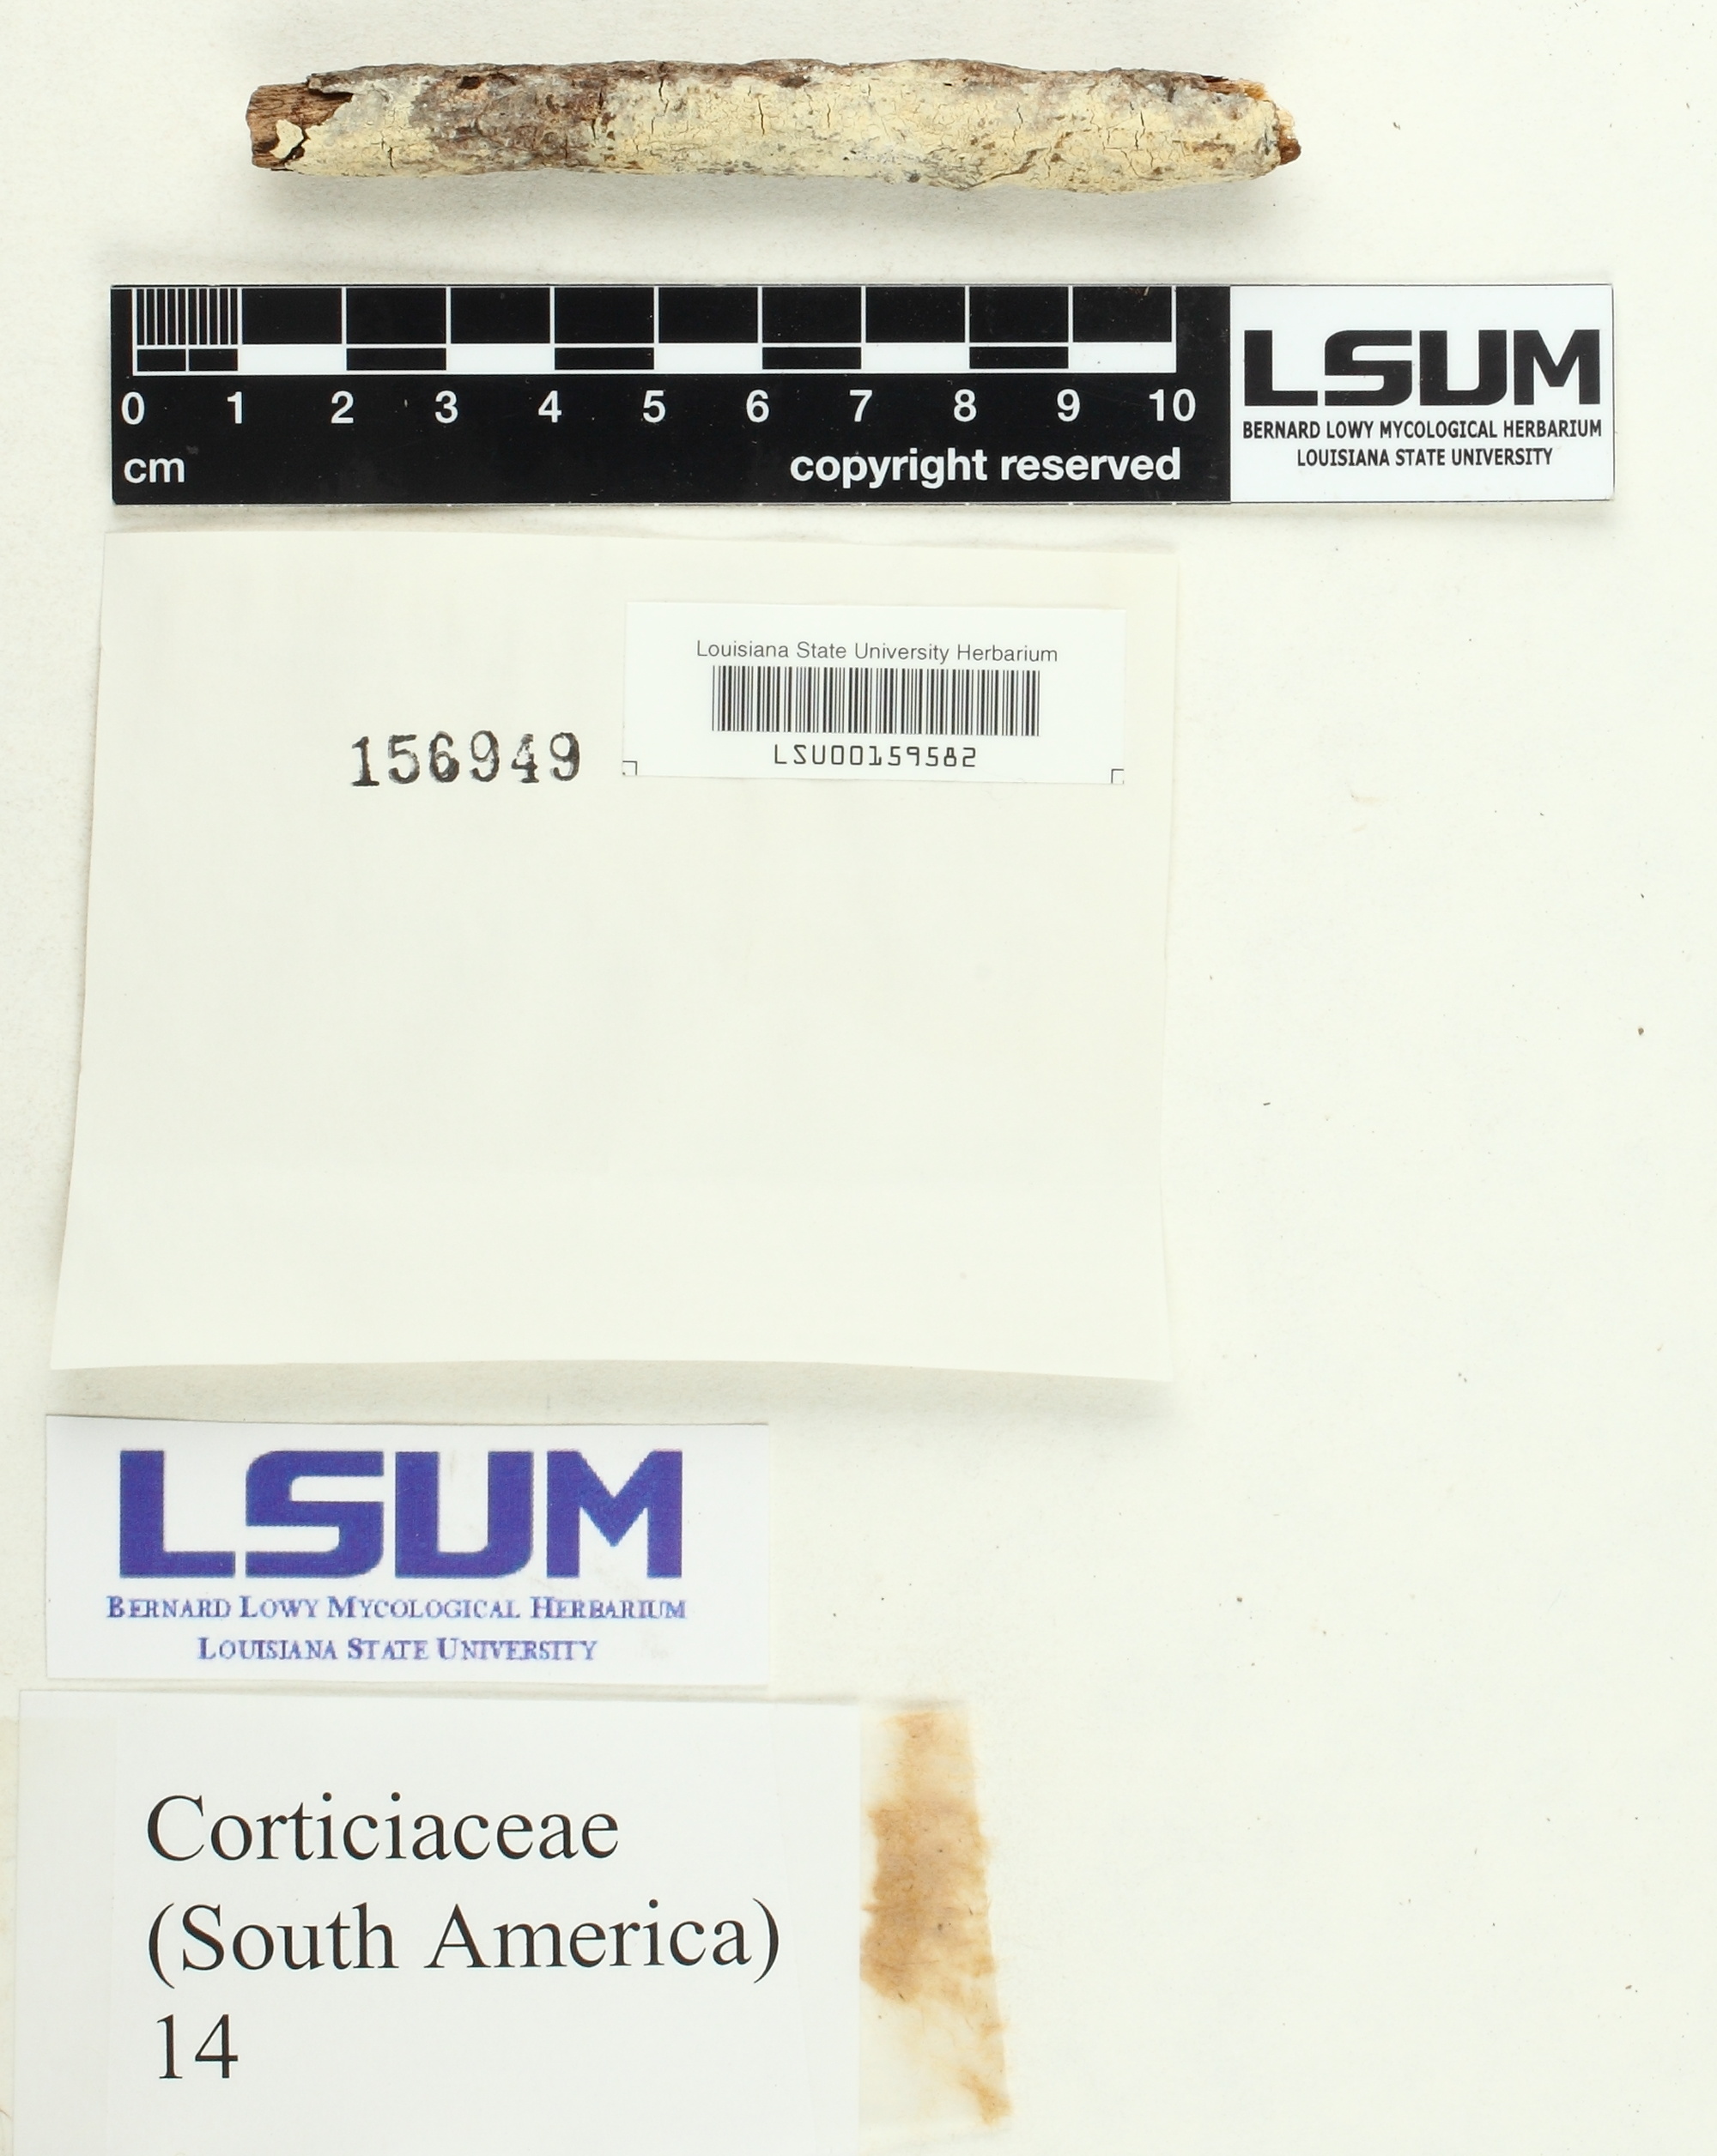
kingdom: Fungi
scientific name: Fungi
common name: Fungi
